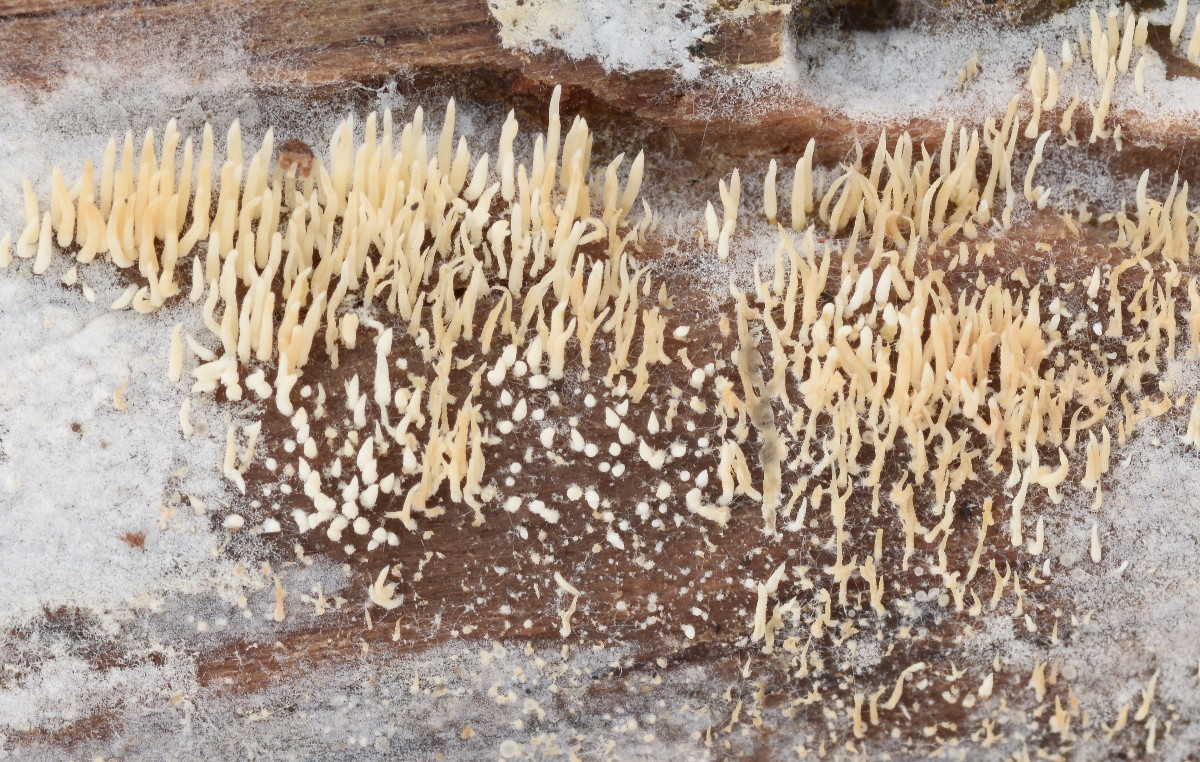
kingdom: Fungi
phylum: Basidiomycota
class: Agaricomycetes
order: Agaricales
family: Clavariaceae
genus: Mucronella
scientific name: Mucronella flava
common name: gul hængepig
